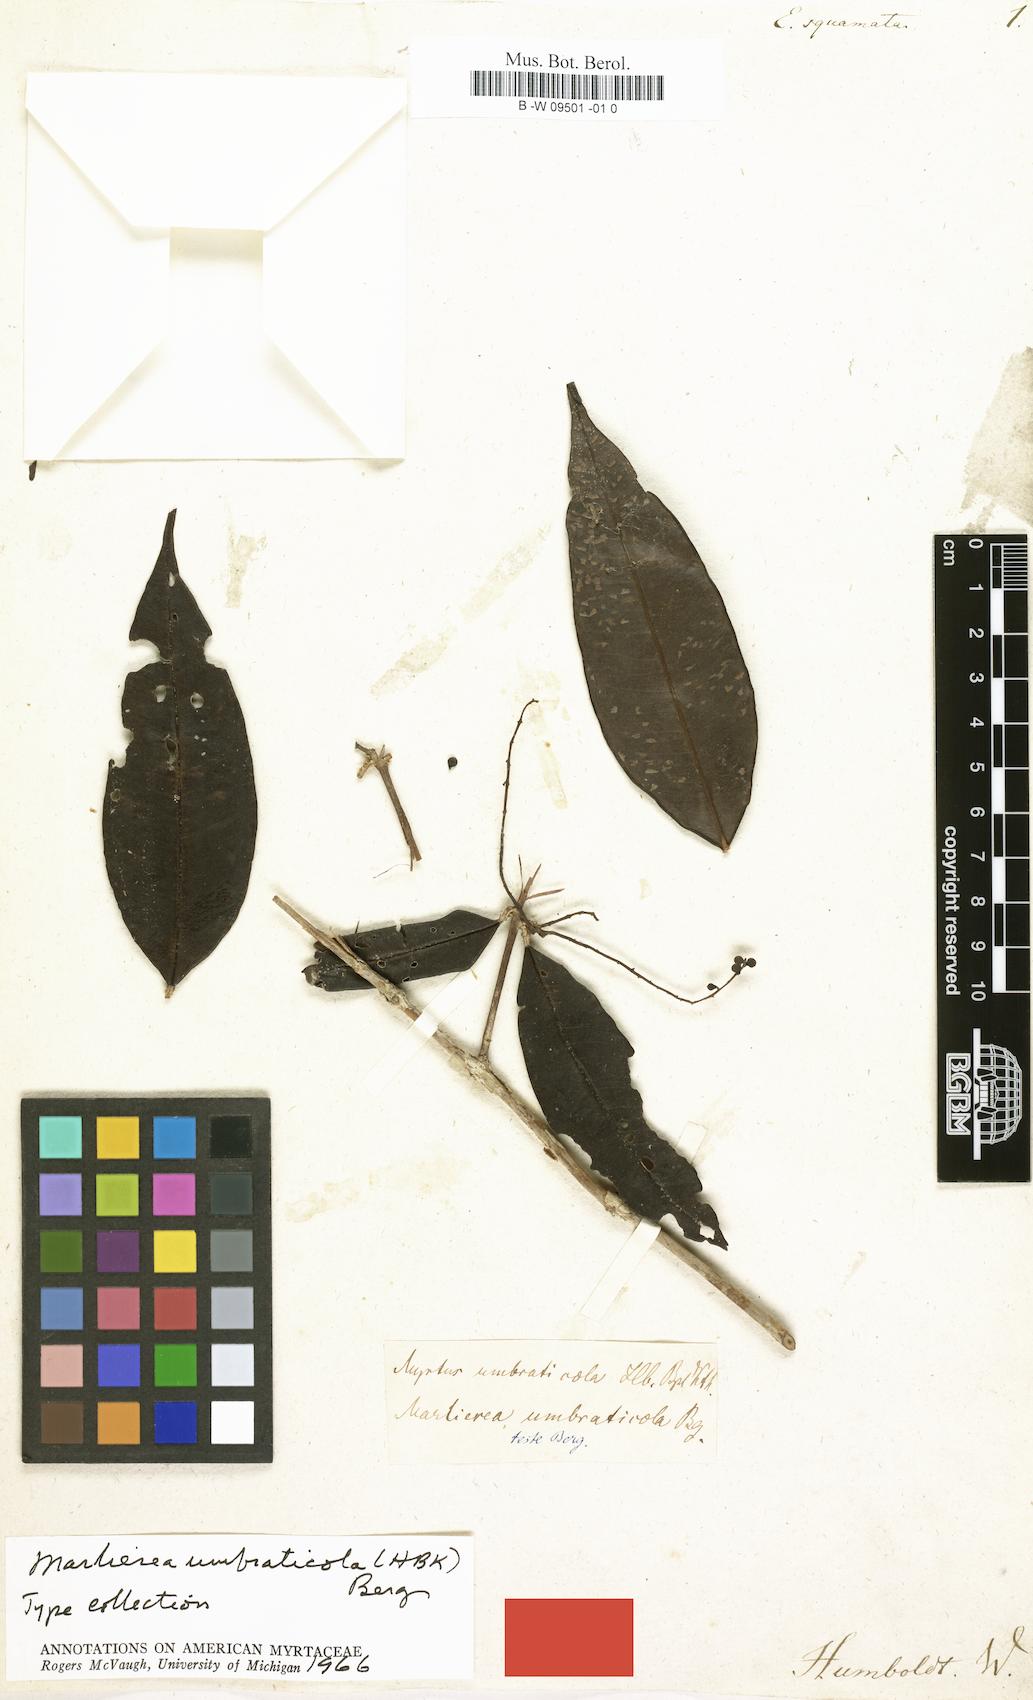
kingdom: Plantae
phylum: Tracheophyta
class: Magnoliopsida
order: Myrtales
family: Myrtaceae
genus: Myrcia
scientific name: Myrcia umbraticola
